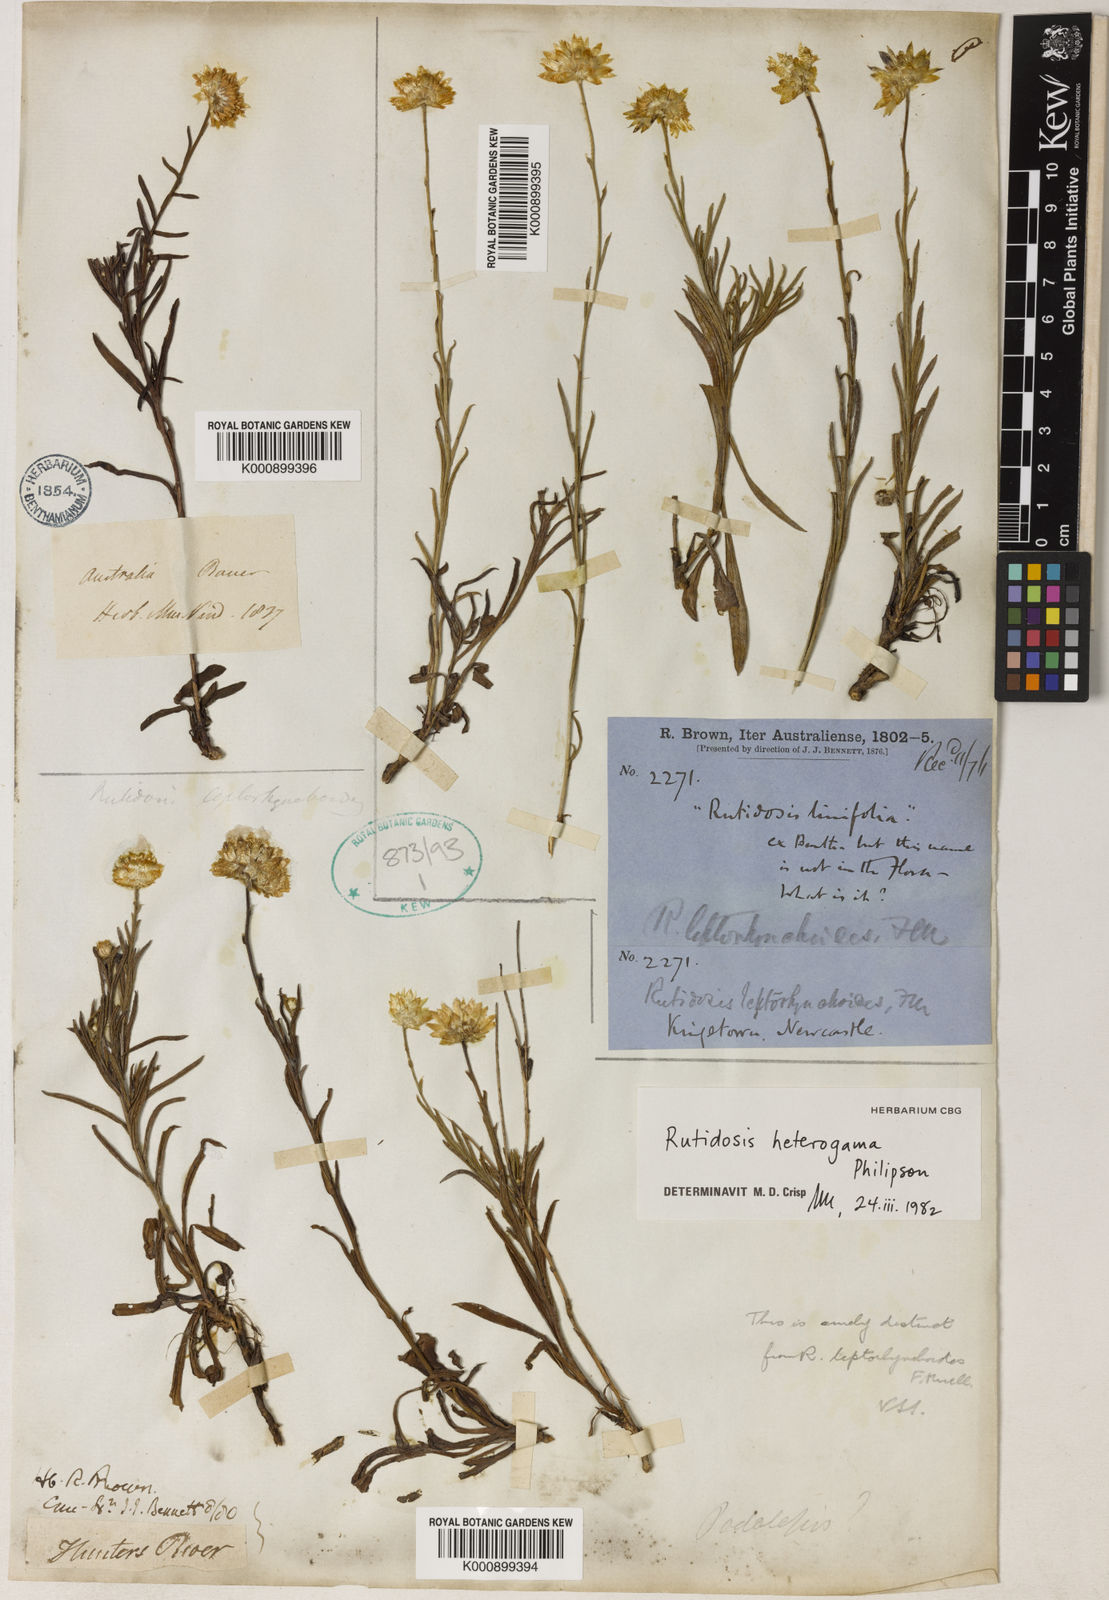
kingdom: Plantae
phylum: Tracheophyta
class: Magnoliopsida
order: Asterales
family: Asteraceae
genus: Rutidosis
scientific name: Rutidosis heterogama
